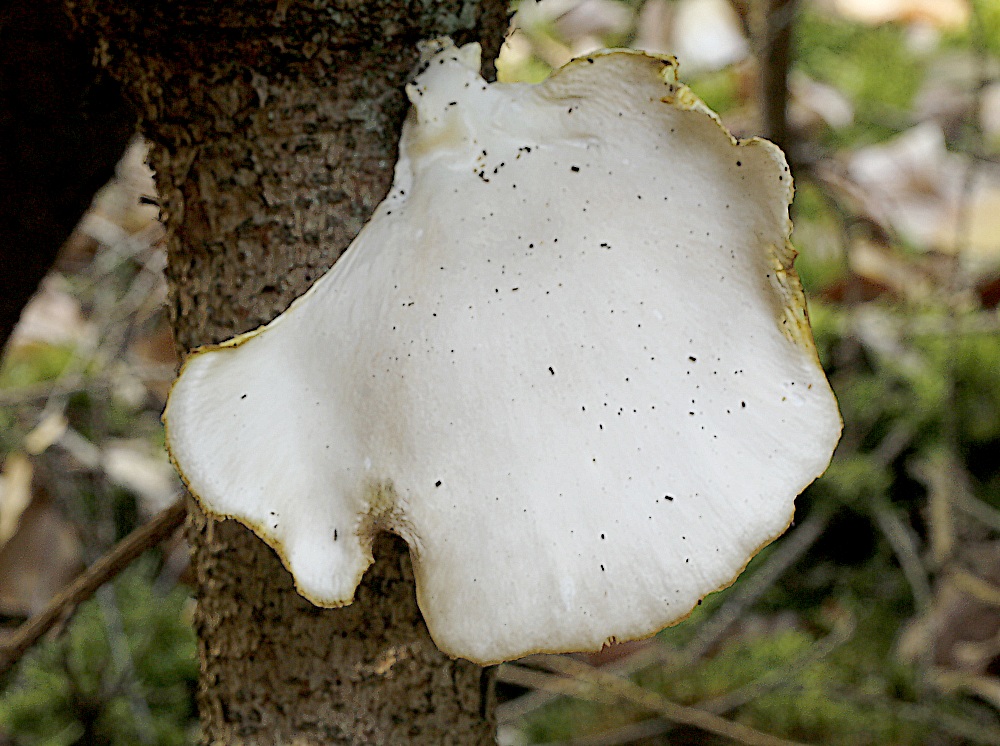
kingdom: Fungi
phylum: Basidiomycota
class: Agaricomycetes
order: Agaricales
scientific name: Agaricales
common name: champignonordenen
